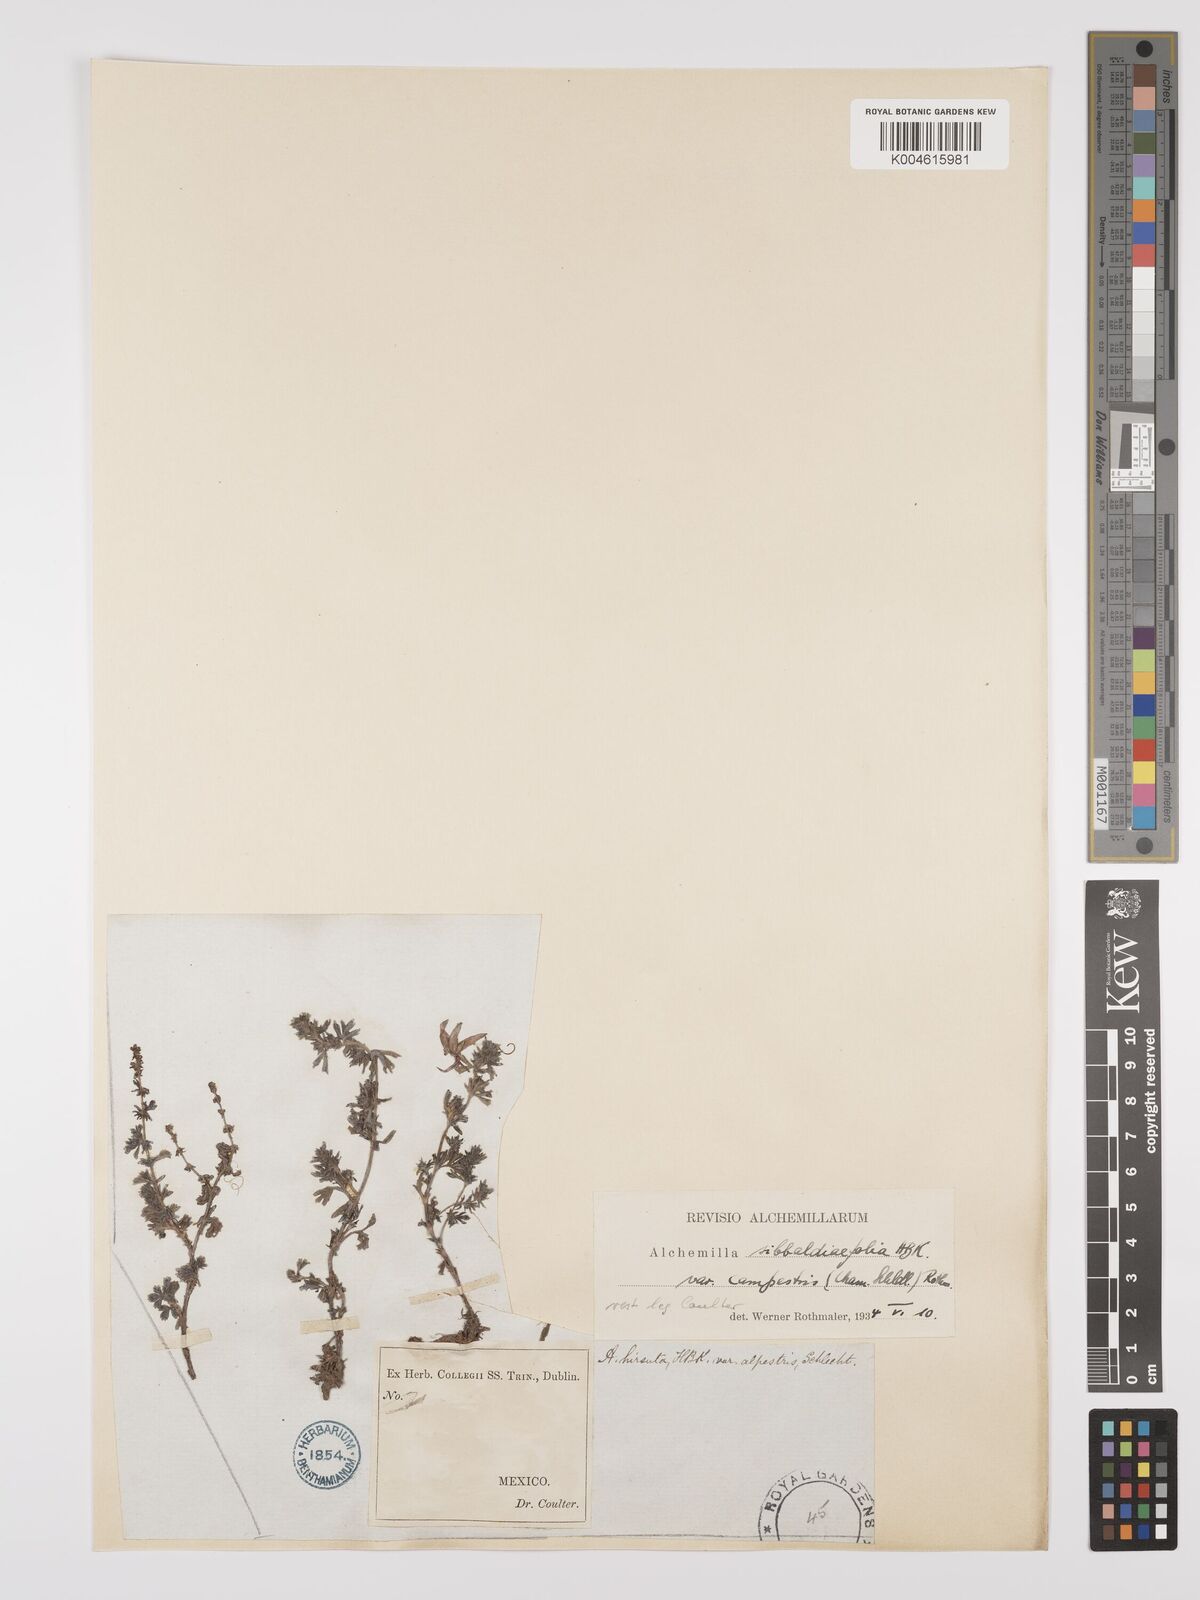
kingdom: Plantae
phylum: Tracheophyta
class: Magnoliopsida
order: Rosales
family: Rosaceae
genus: Lachemilla
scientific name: Lachemilla sibbaldiifolia
